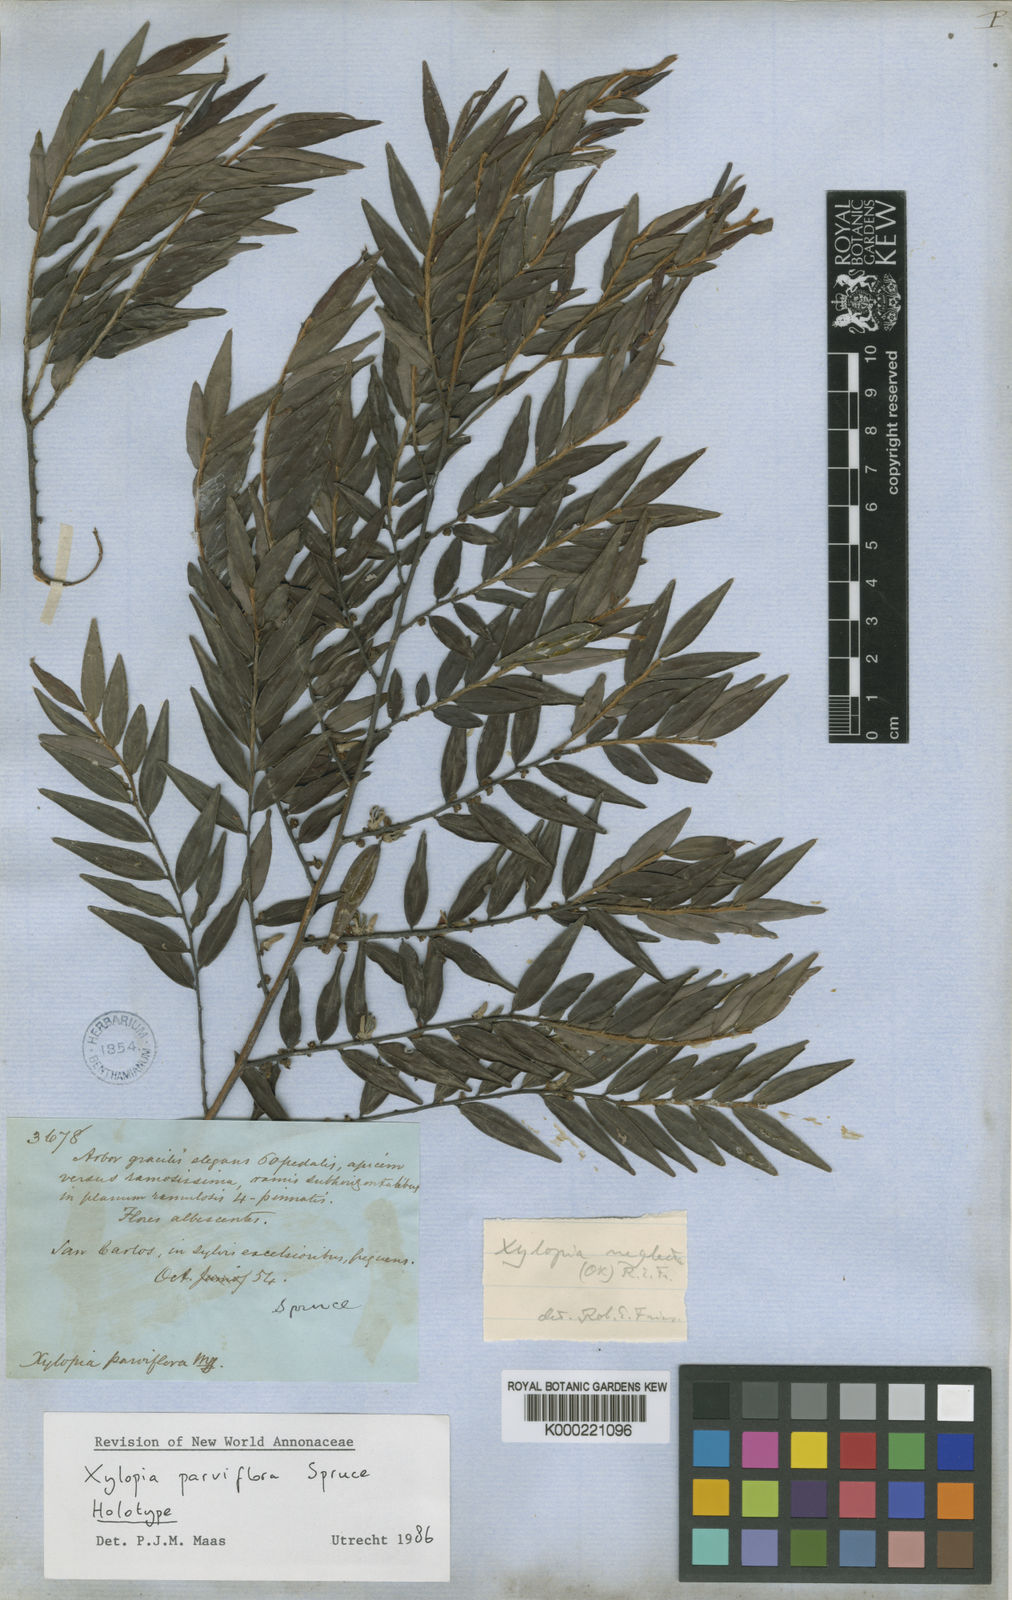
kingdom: Plantae
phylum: Tracheophyta
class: Magnoliopsida
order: Magnoliales
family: Annonaceae
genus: Xylopia
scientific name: Xylopia neglecta
